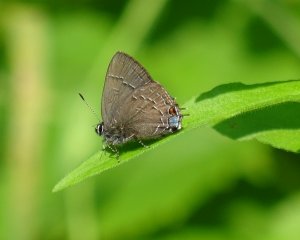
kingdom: Animalia
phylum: Arthropoda
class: Insecta
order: Lepidoptera
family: Lycaenidae
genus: Satyrium
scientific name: Satyrium calanus
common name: Banded Hairstreak
